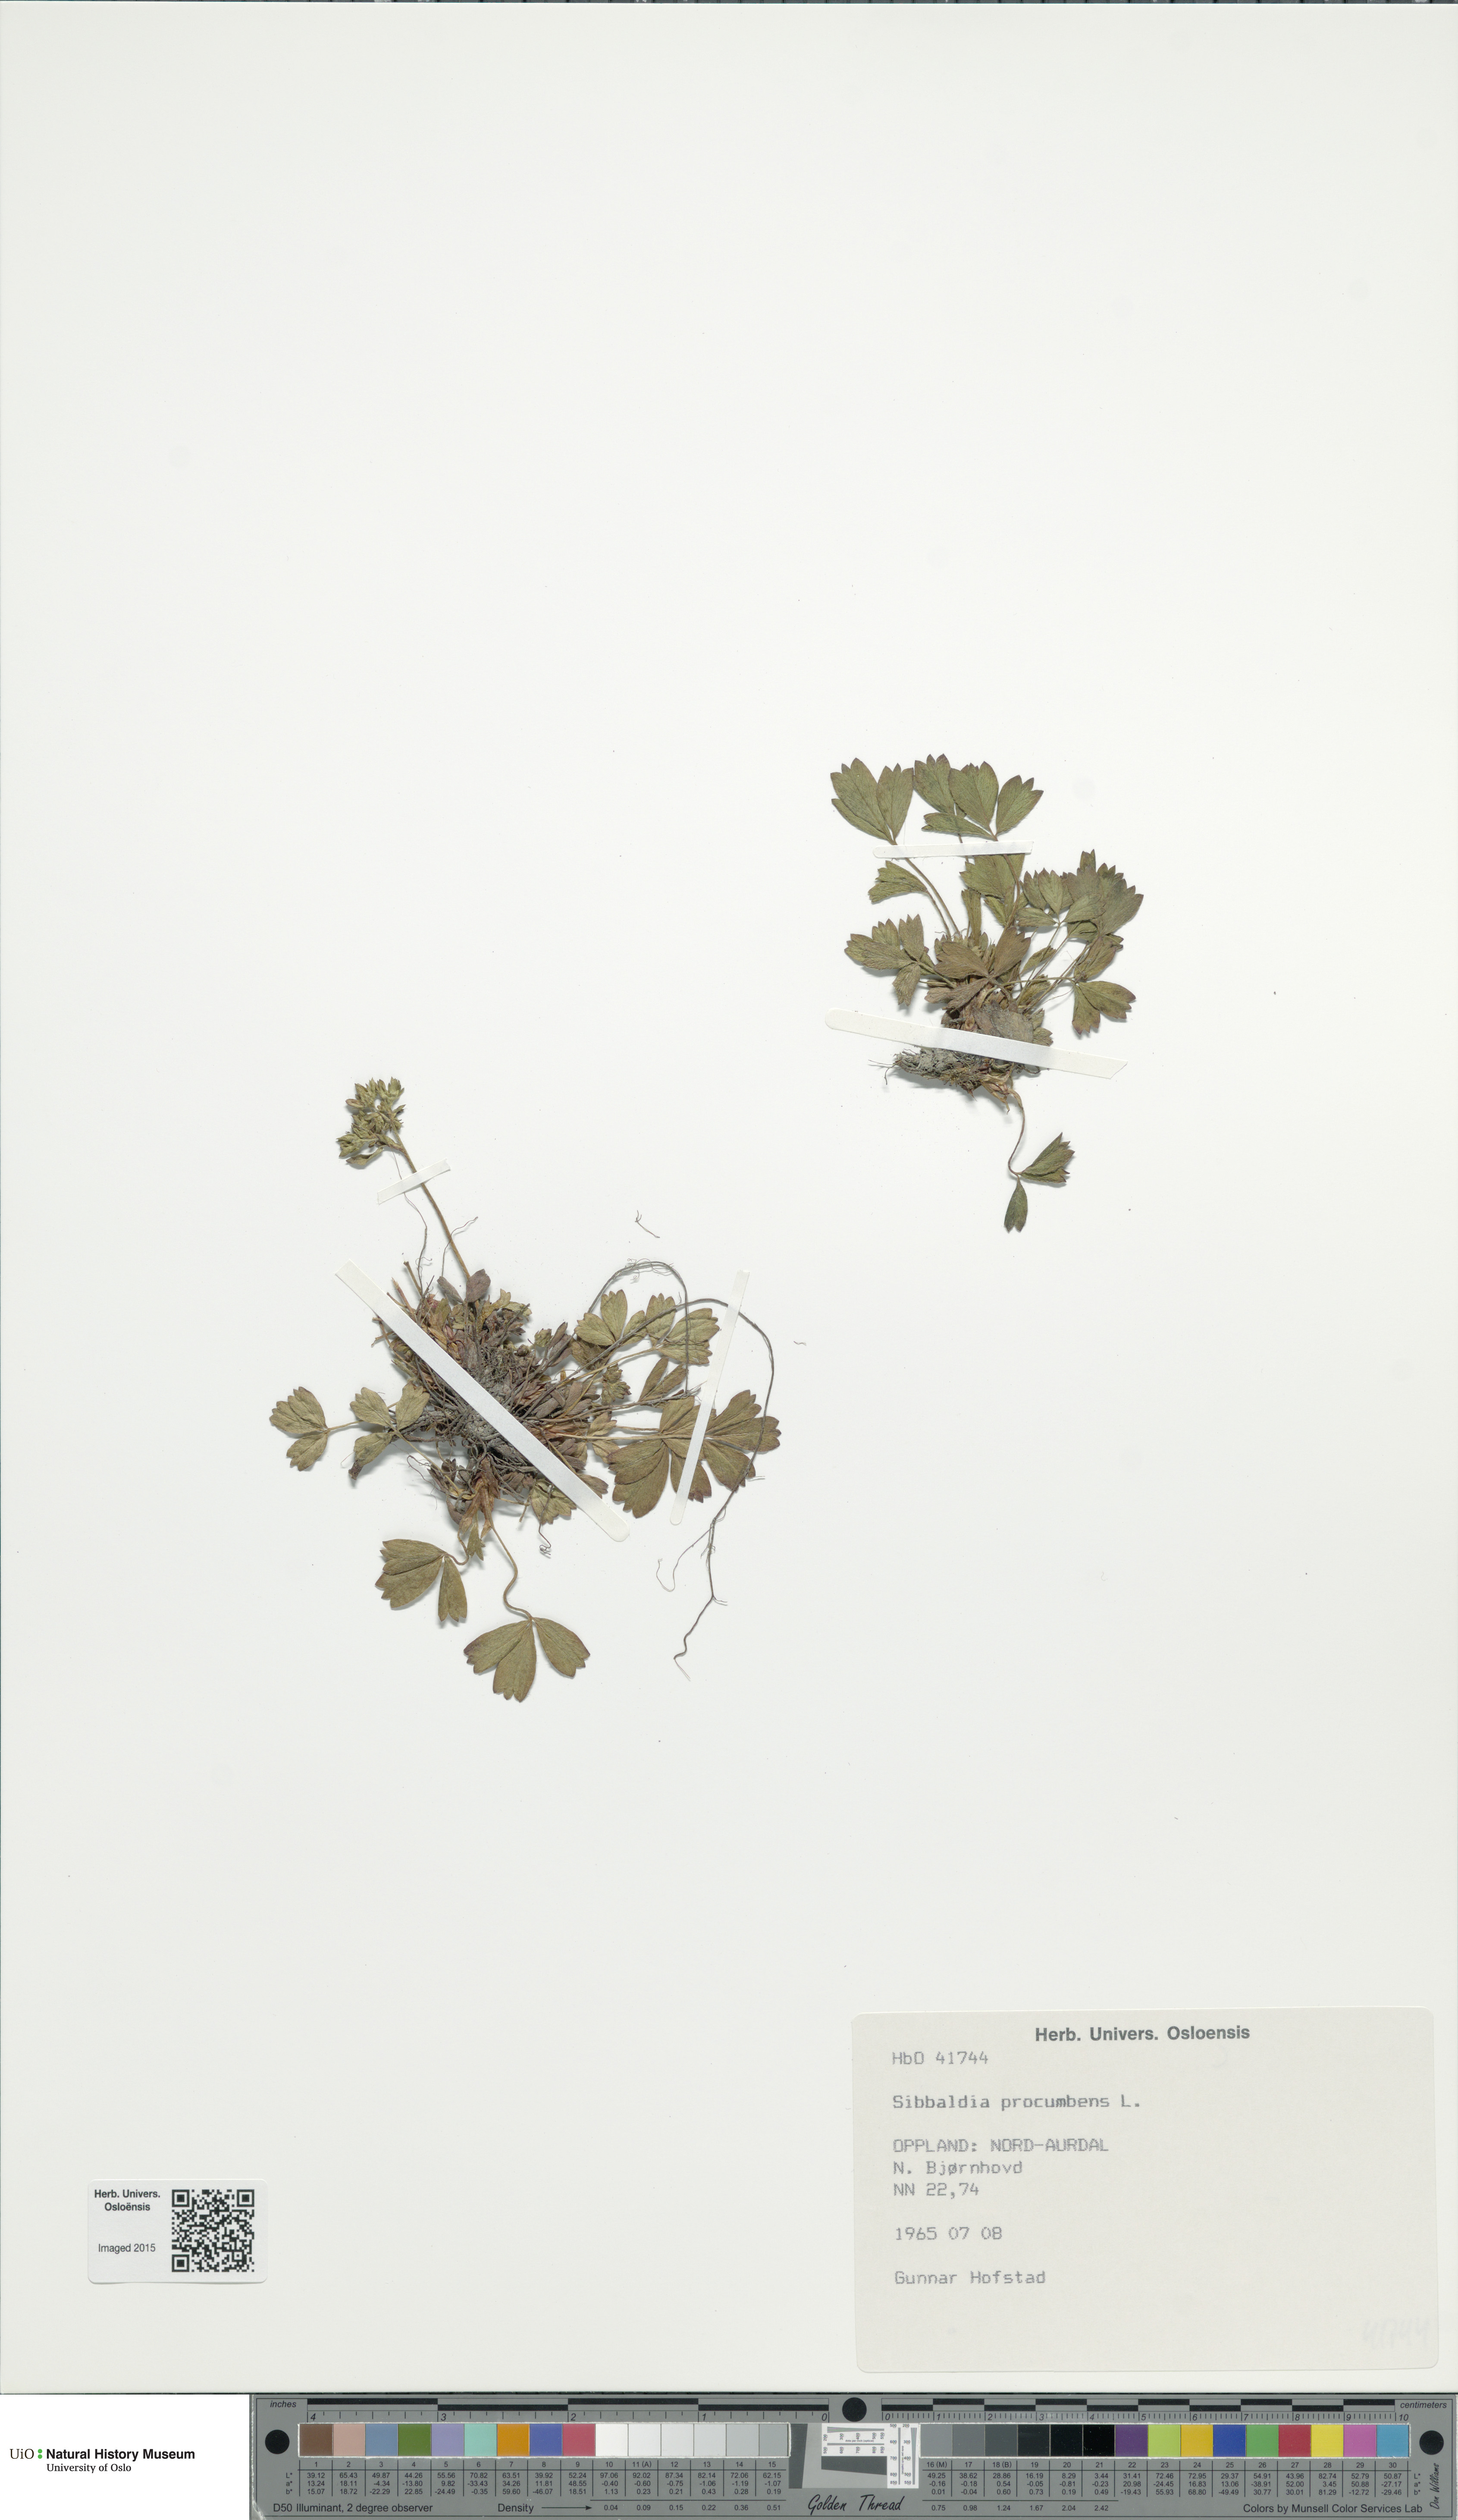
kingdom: Plantae
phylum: Tracheophyta
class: Magnoliopsida
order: Rosales
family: Rosaceae
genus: Sibbaldia
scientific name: Sibbaldia procumbens
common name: Creeping sibbaldia
